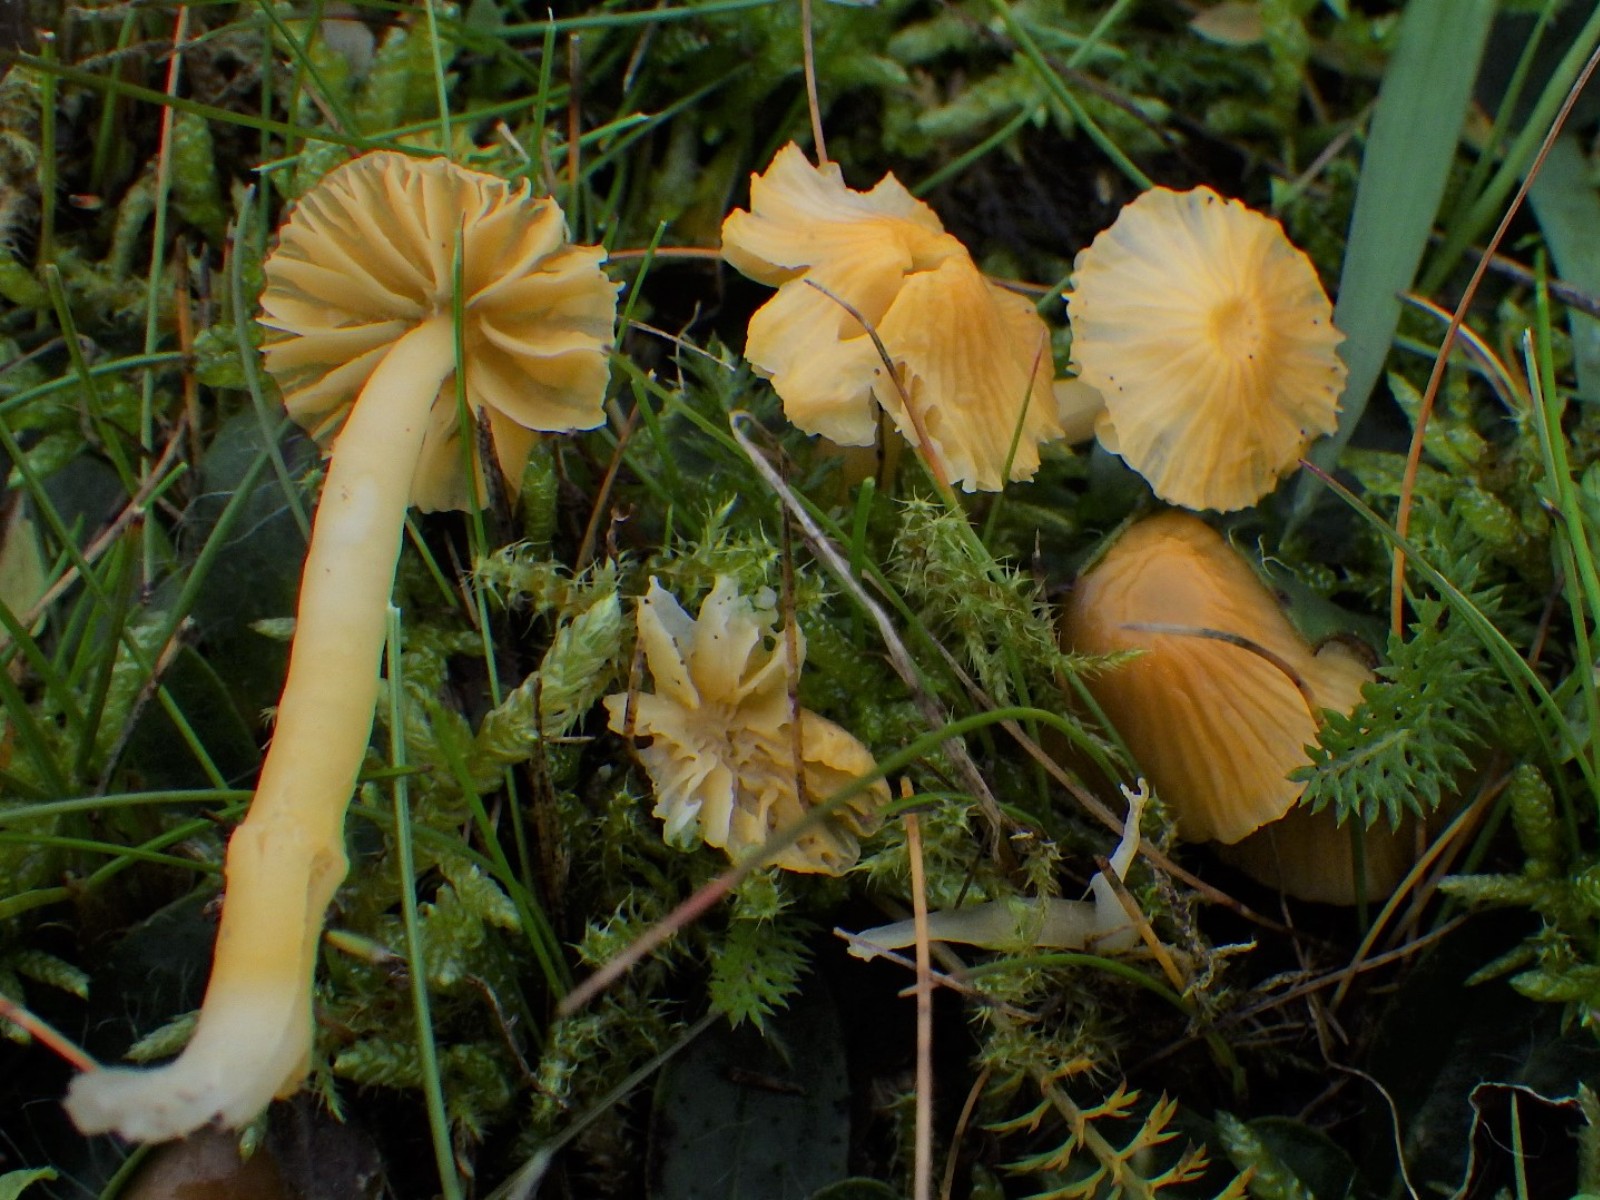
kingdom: Fungi
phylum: Basidiomycota
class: Agaricomycetes
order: Agaricales
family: Hygrophoraceae
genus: Gliophorus
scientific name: Gliophorus psittacinus
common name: papegøje-vokshat
